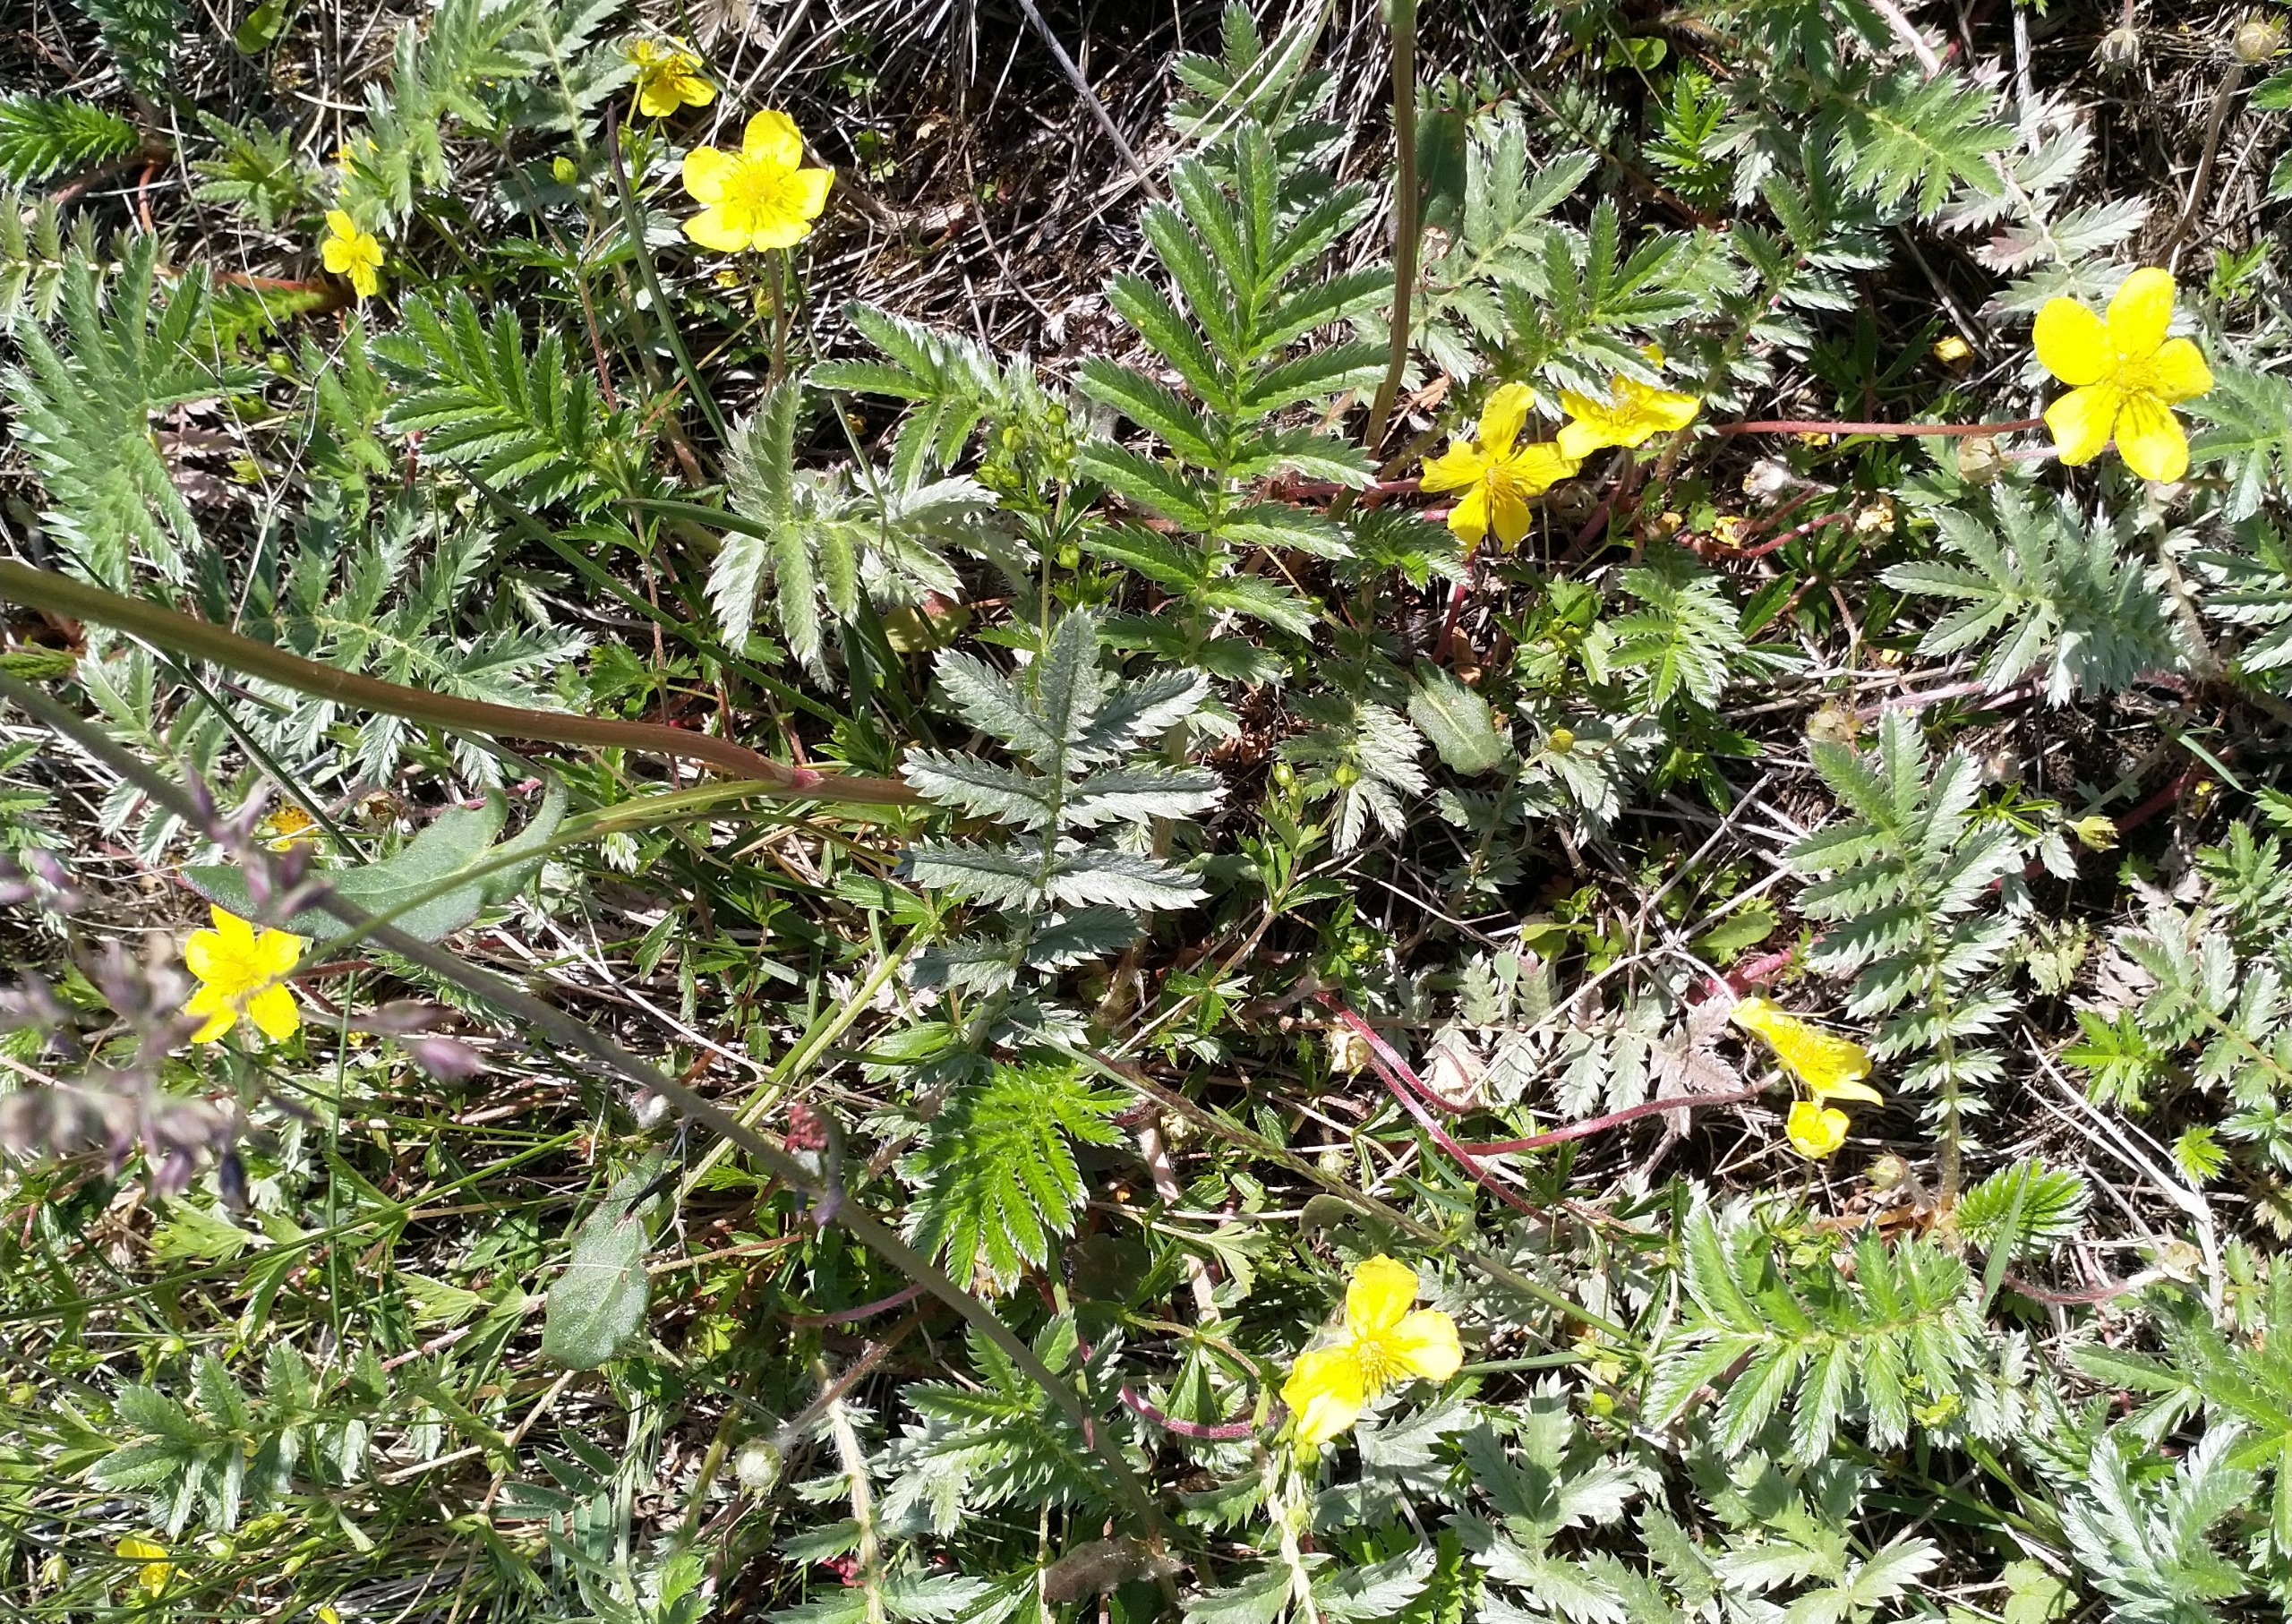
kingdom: Plantae
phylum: Tracheophyta
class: Magnoliopsida
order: Rosales
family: Rosaceae
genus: Argentina
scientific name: Argentina anserina
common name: Gåsepotentil
